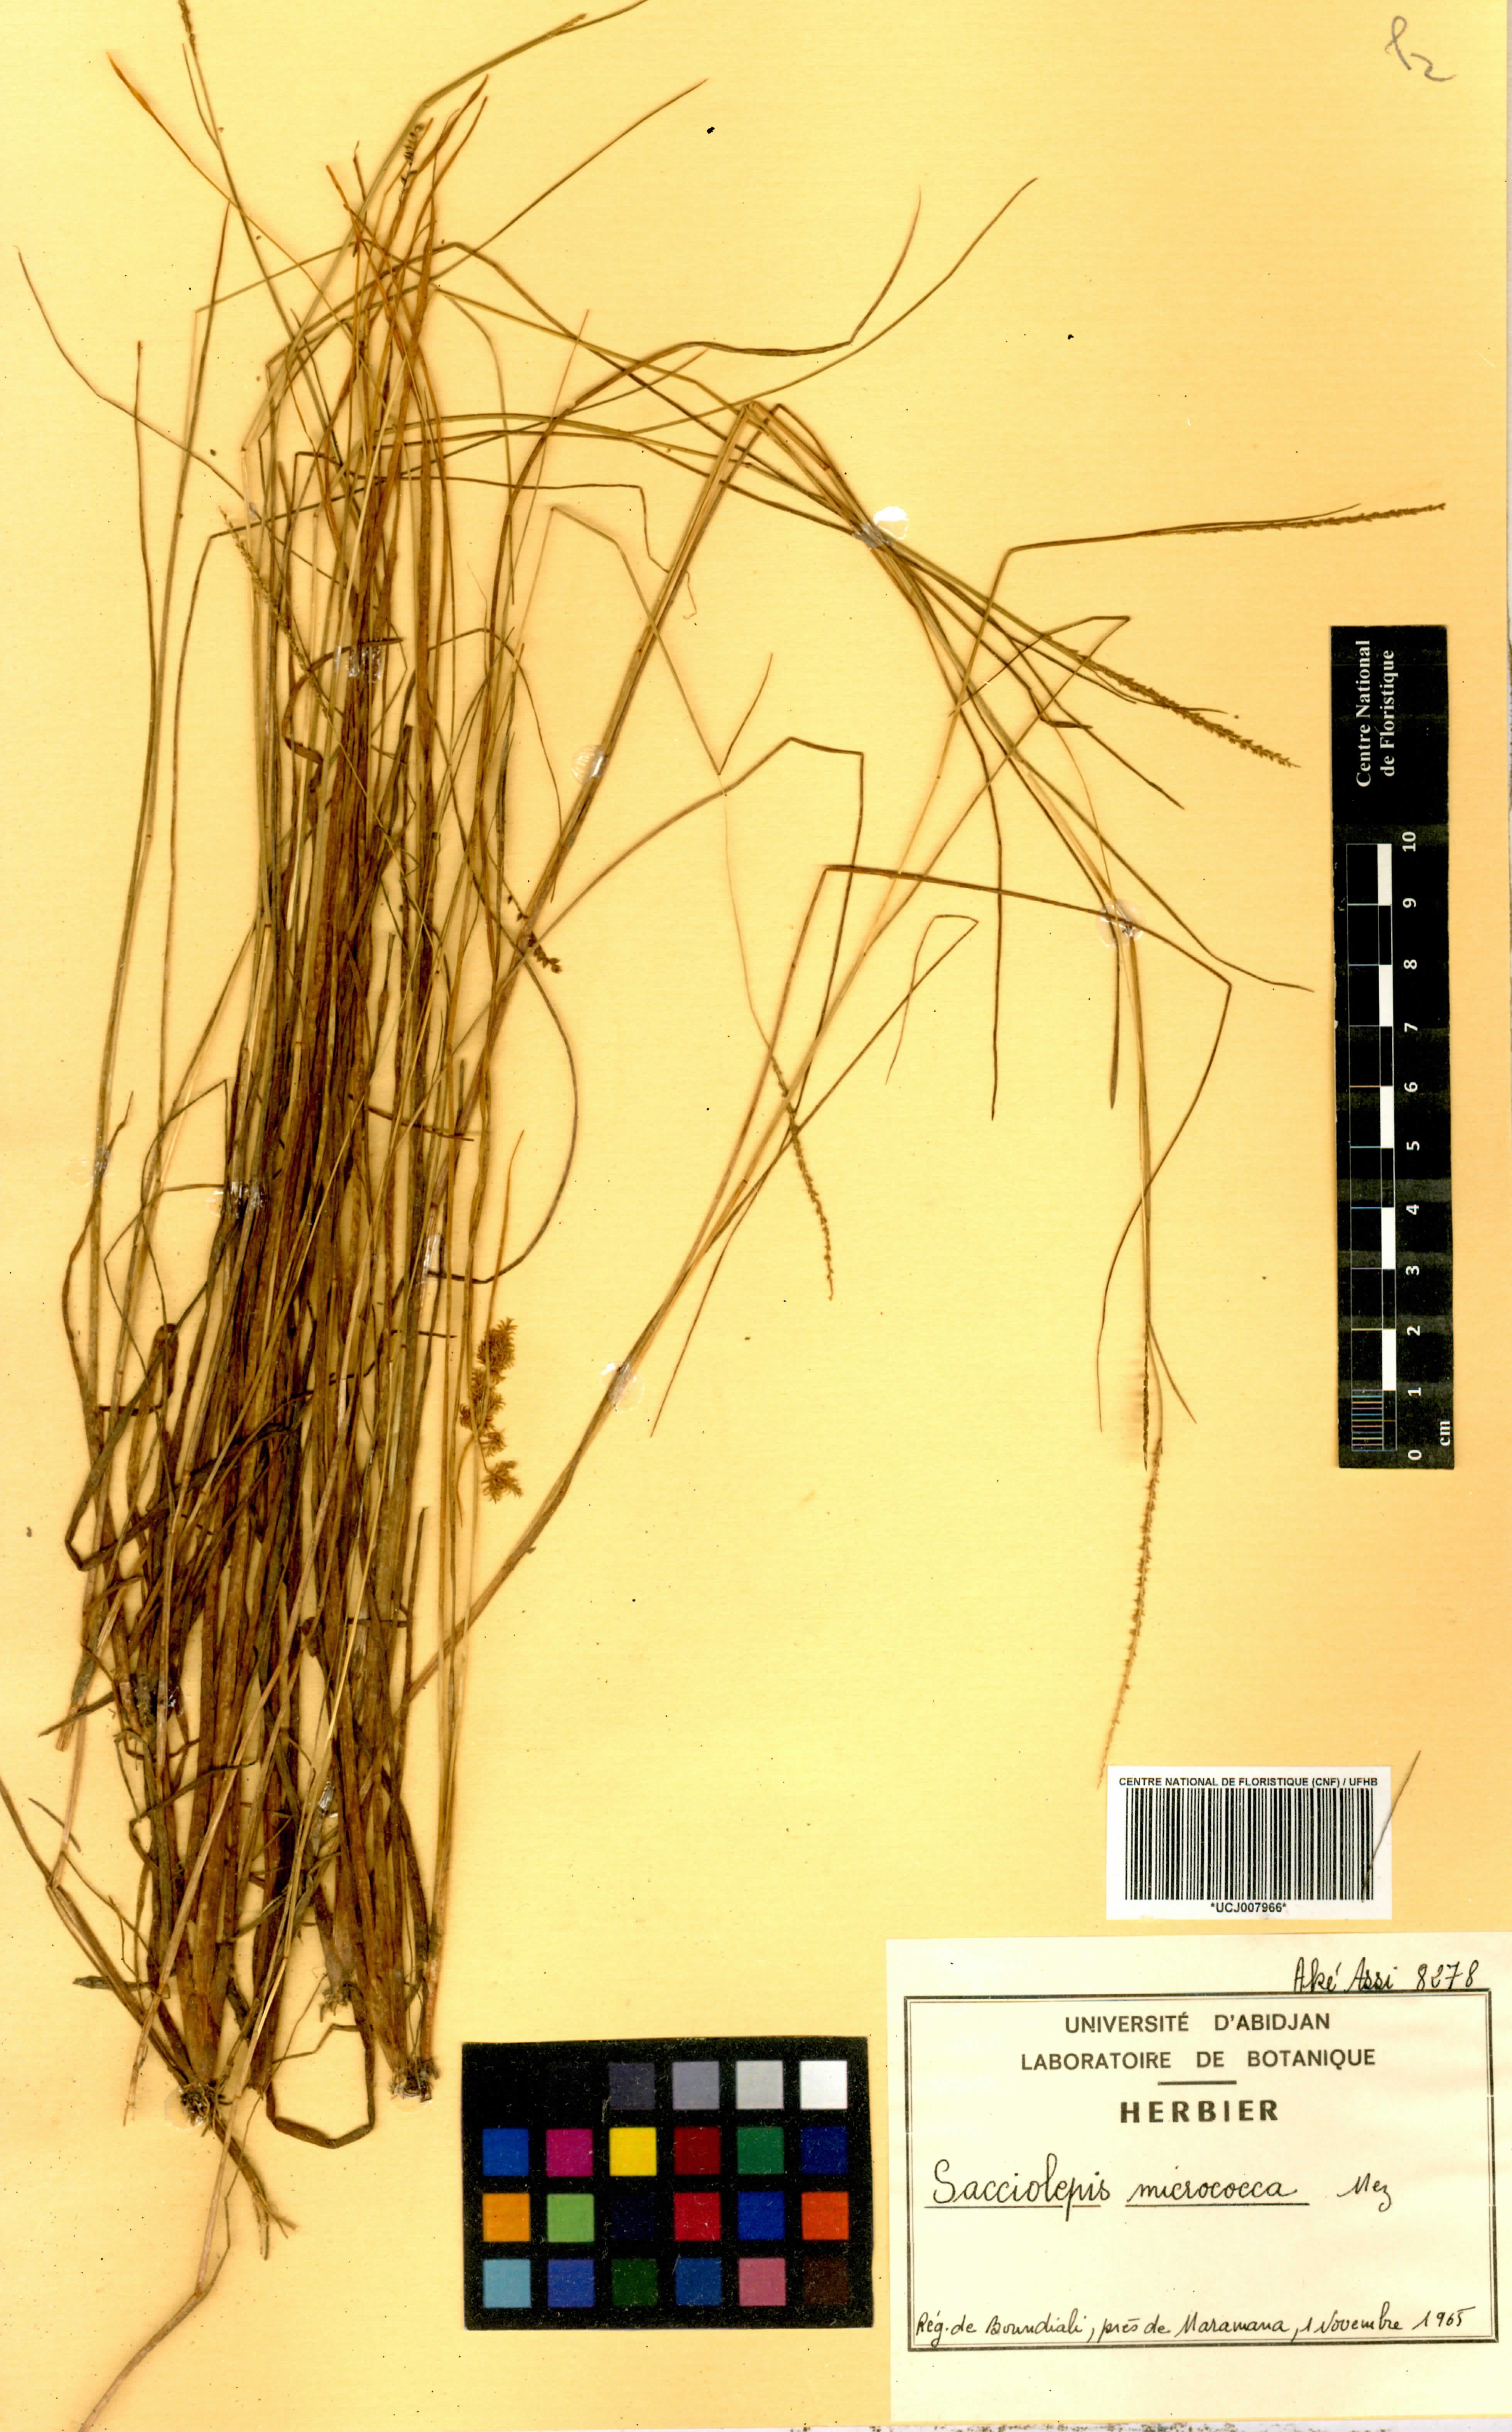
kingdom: Plantae
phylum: Tracheophyta
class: Liliopsida
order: Poales
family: Poaceae
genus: Sacciolepis
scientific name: Sacciolepis micrococca
